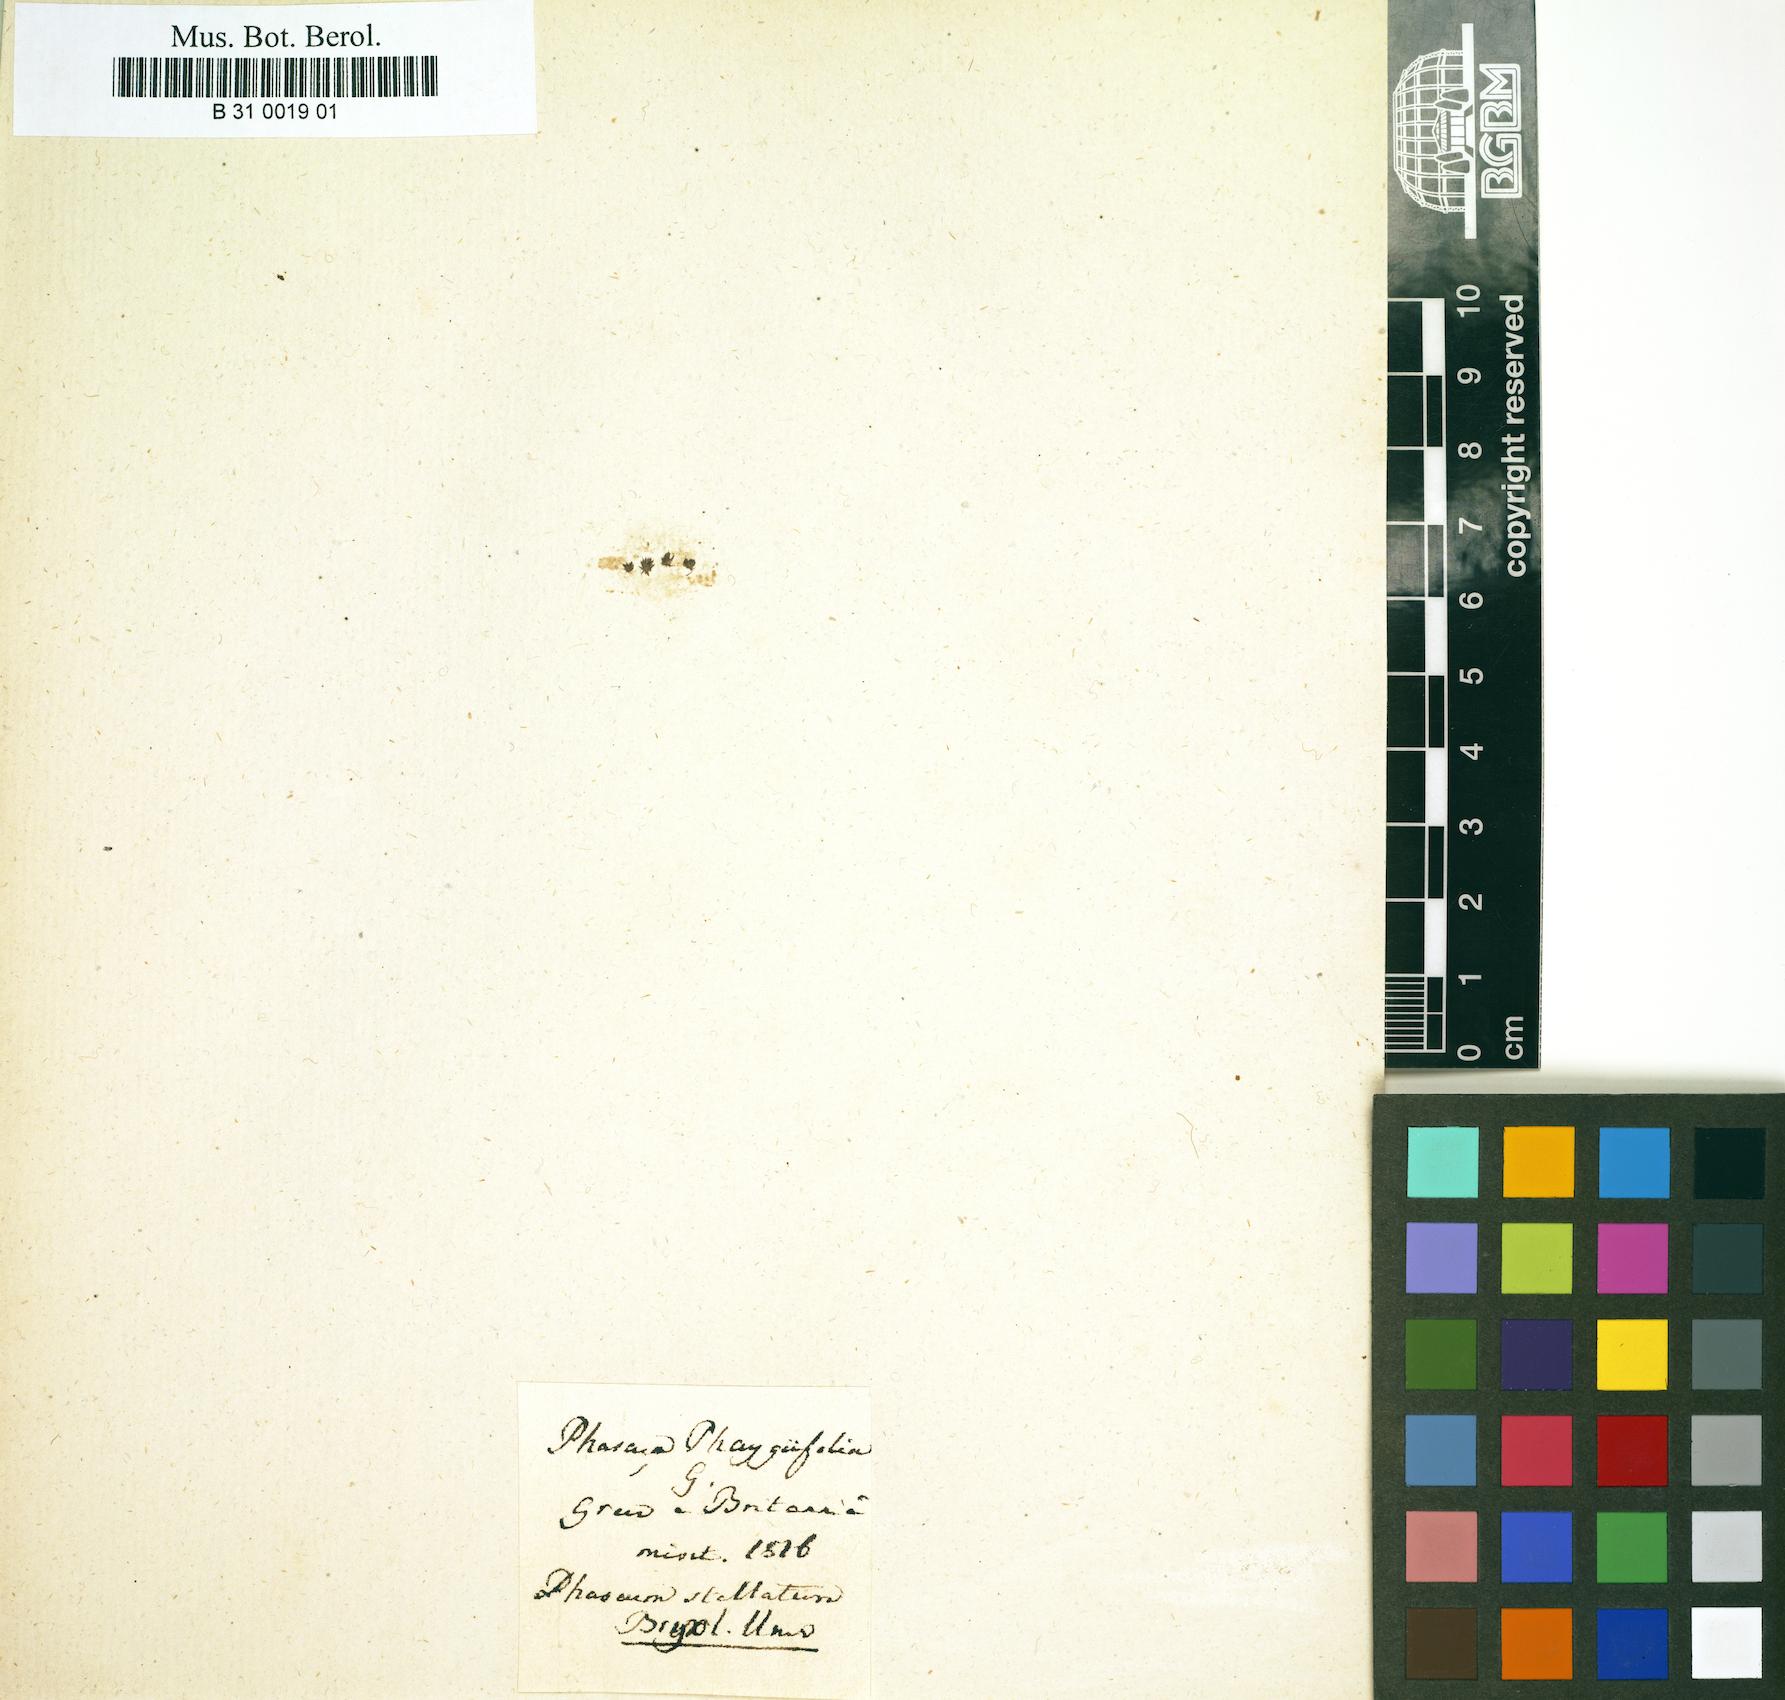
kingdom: Plantae
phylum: Bryophyta
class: Bryopsida
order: Pottiales
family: Pottiaceae
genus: Phascum
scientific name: Phascum stellatum
